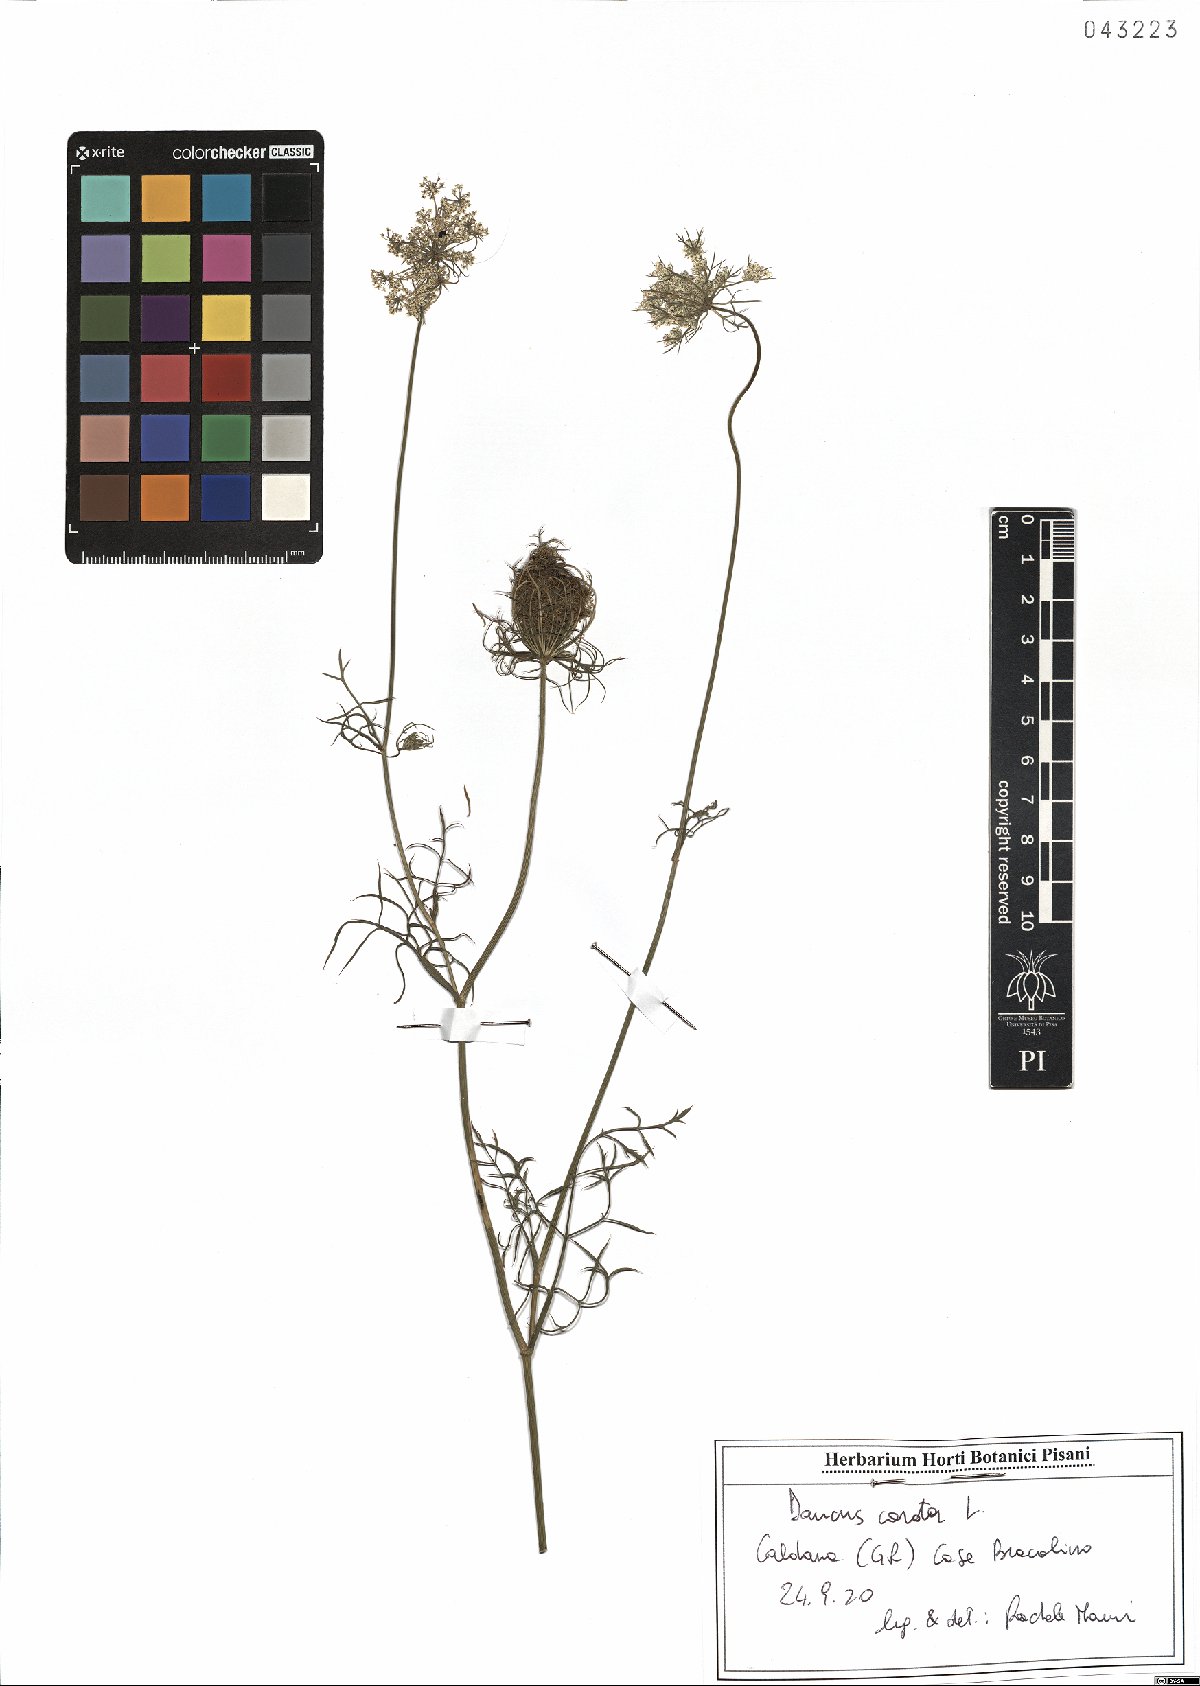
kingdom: Plantae
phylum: Tracheophyta
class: Magnoliopsida
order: Apiales
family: Apiaceae
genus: Daucus
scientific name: Daucus carota
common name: Wild carrot
